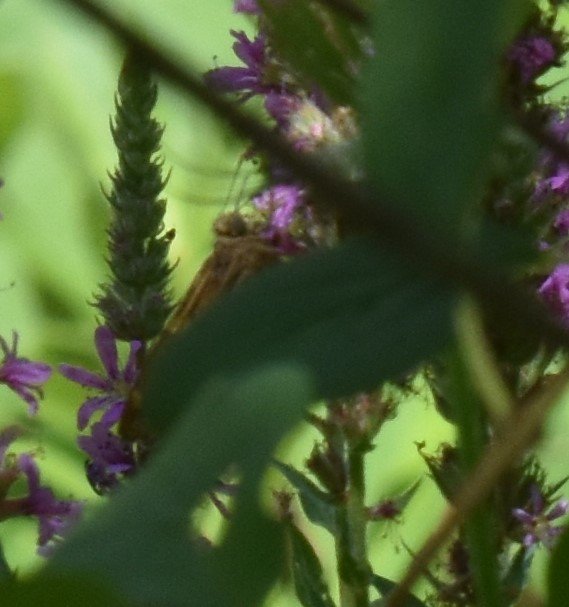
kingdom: Animalia
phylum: Arthropoda
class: Insecta
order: Lepidoptera
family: Hesperiidae
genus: Epargyreus
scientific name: Epargyreus clarus
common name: Silver-spotted Skipper
